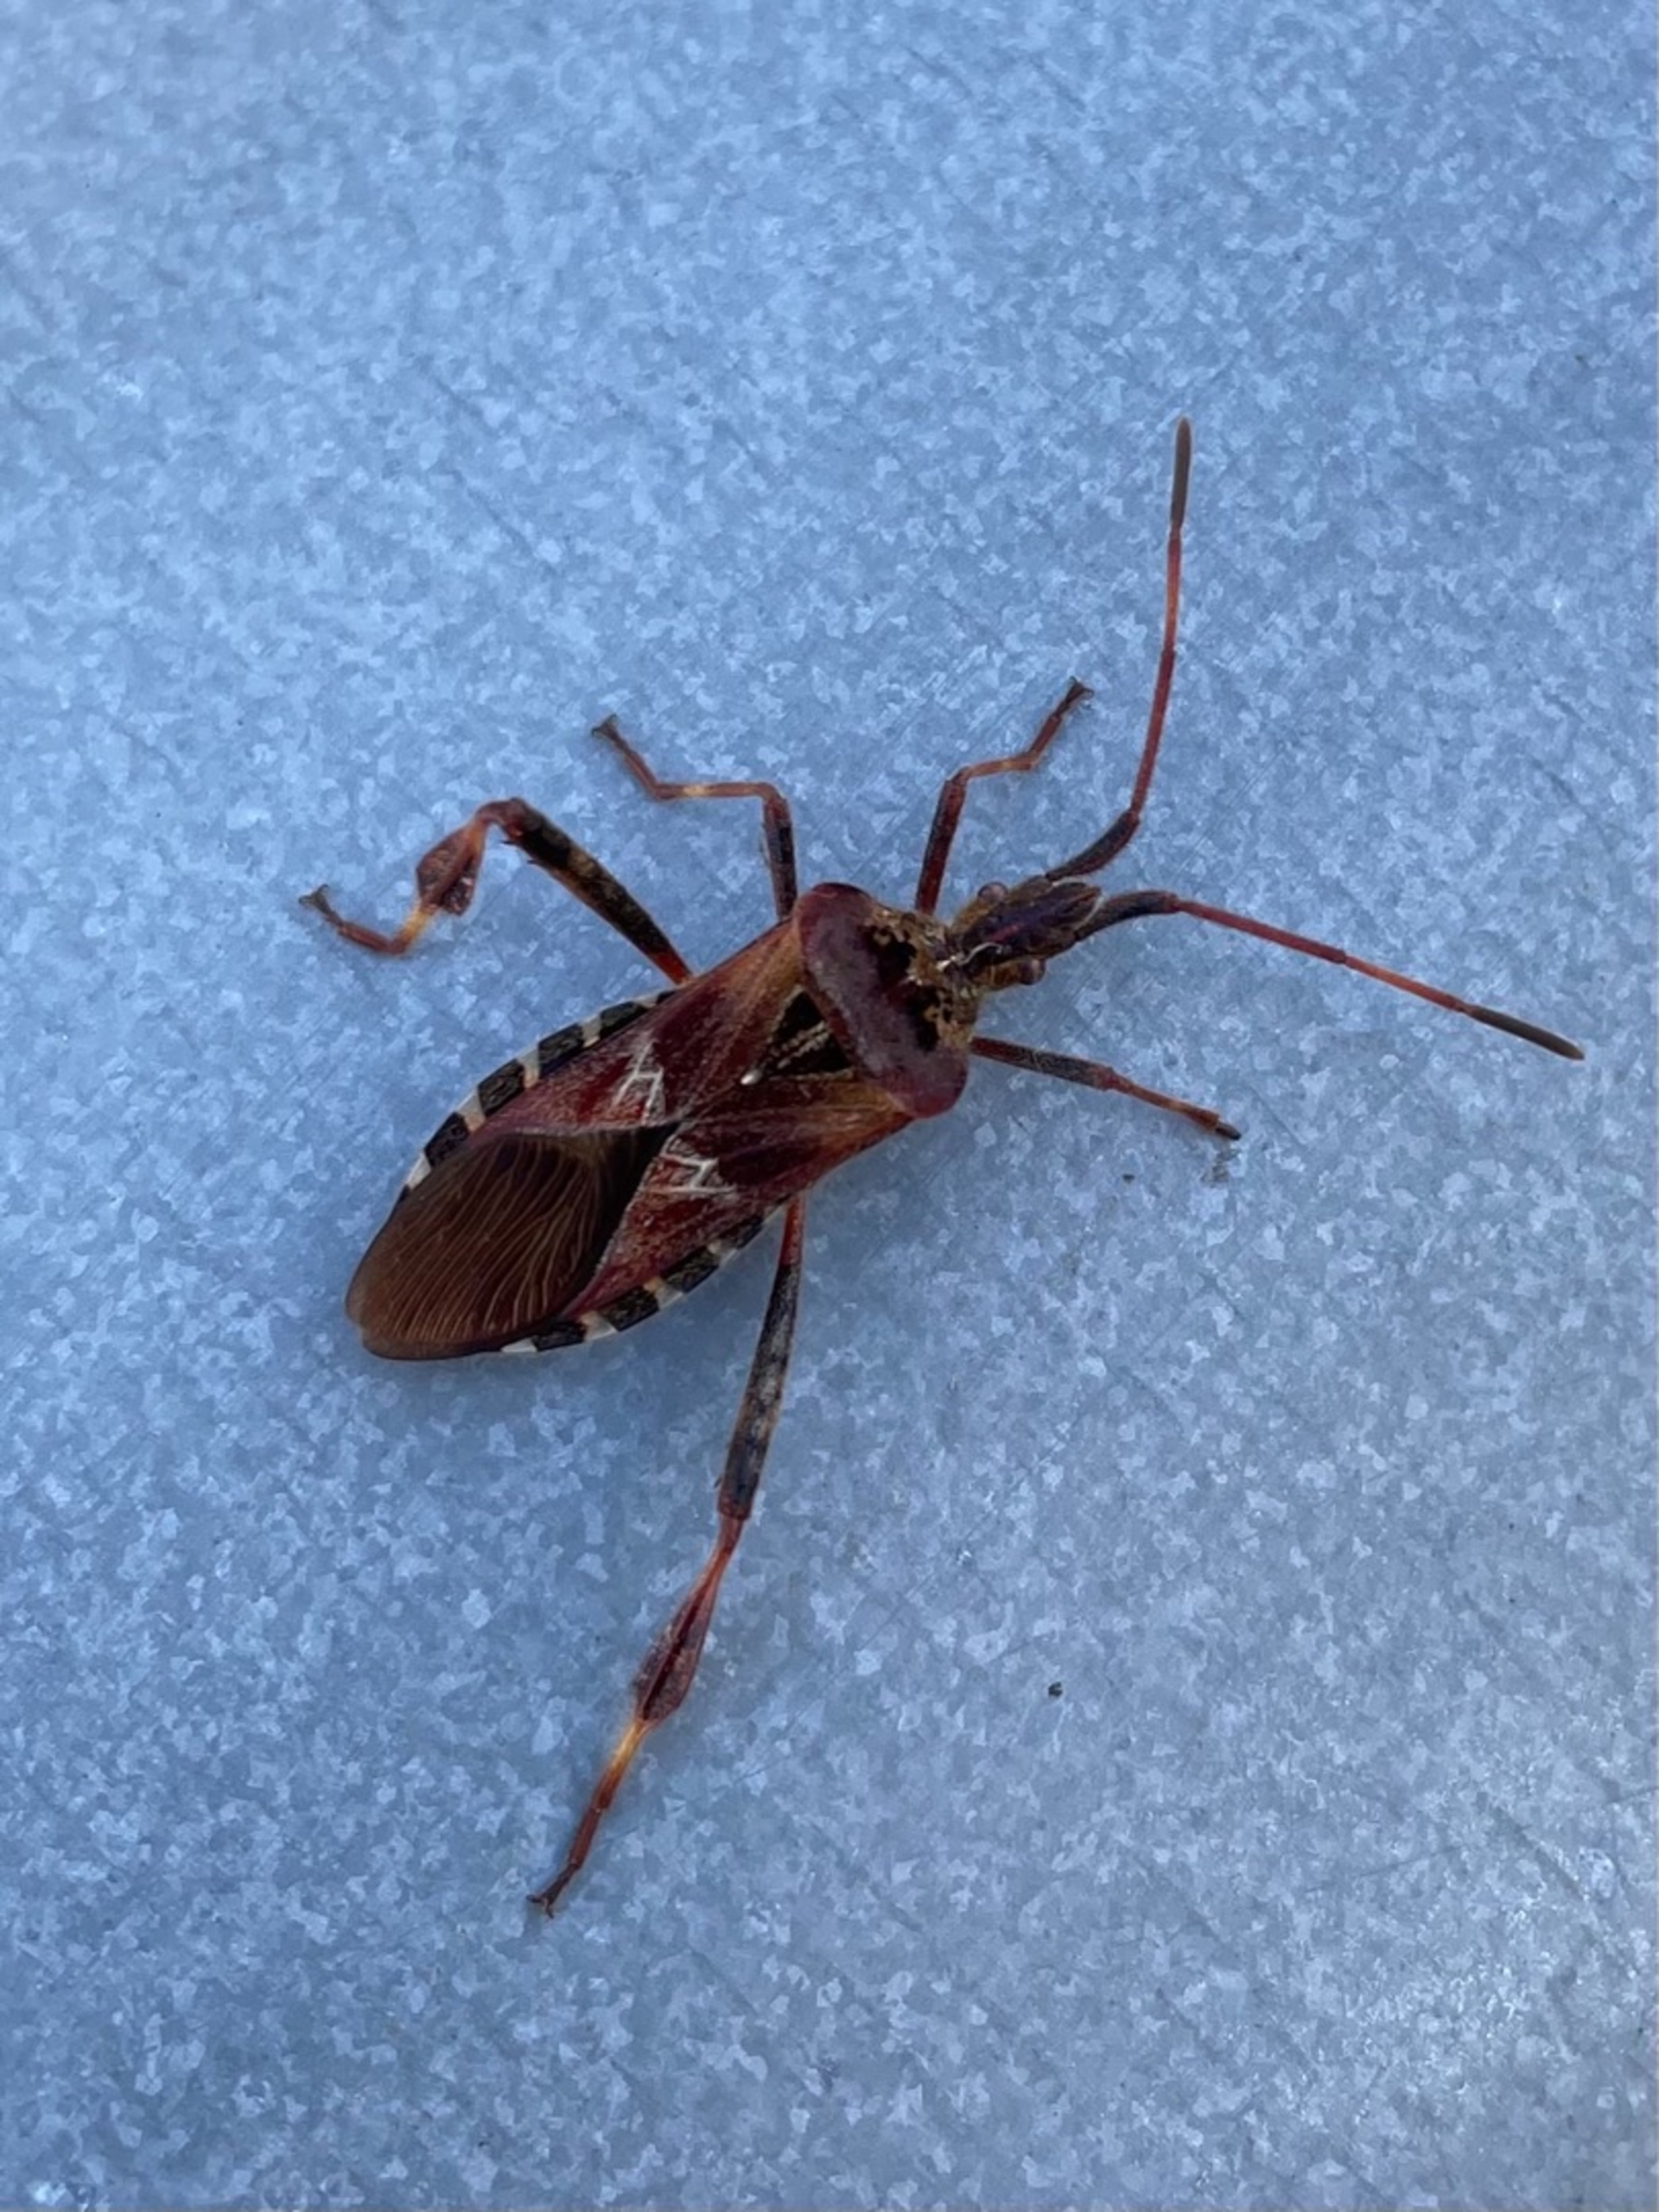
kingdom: Animalia
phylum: Arthropoda
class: Insecta
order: Hemiptera
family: Coreidae
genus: Leptoglossus
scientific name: Leptoglossus occidentalis
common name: Amerikansk fyrretæge
